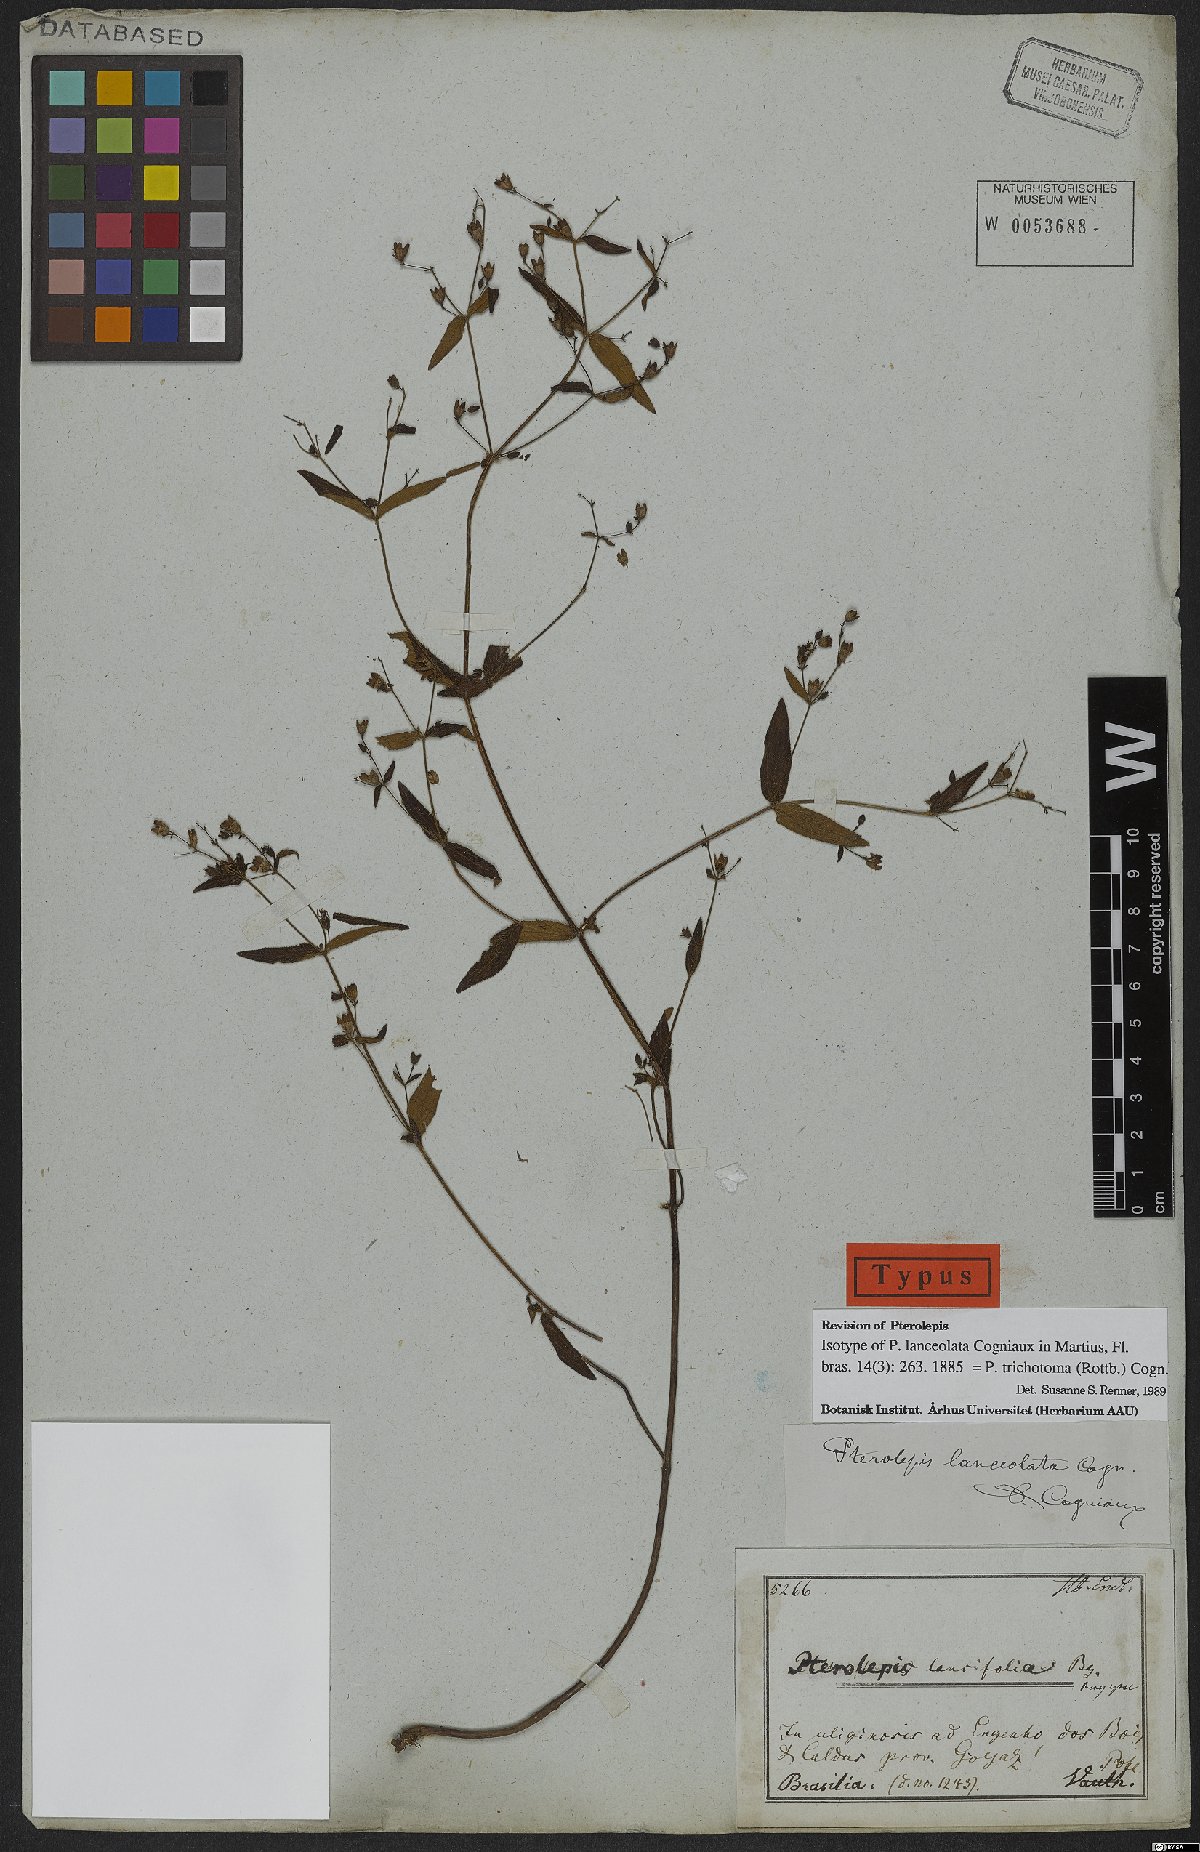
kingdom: Plantae
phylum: Tracheophyta
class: Magnoliopsida
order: Myrtales
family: Melastomataceae
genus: Pterolepis
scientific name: Pterolepis trichotoma
